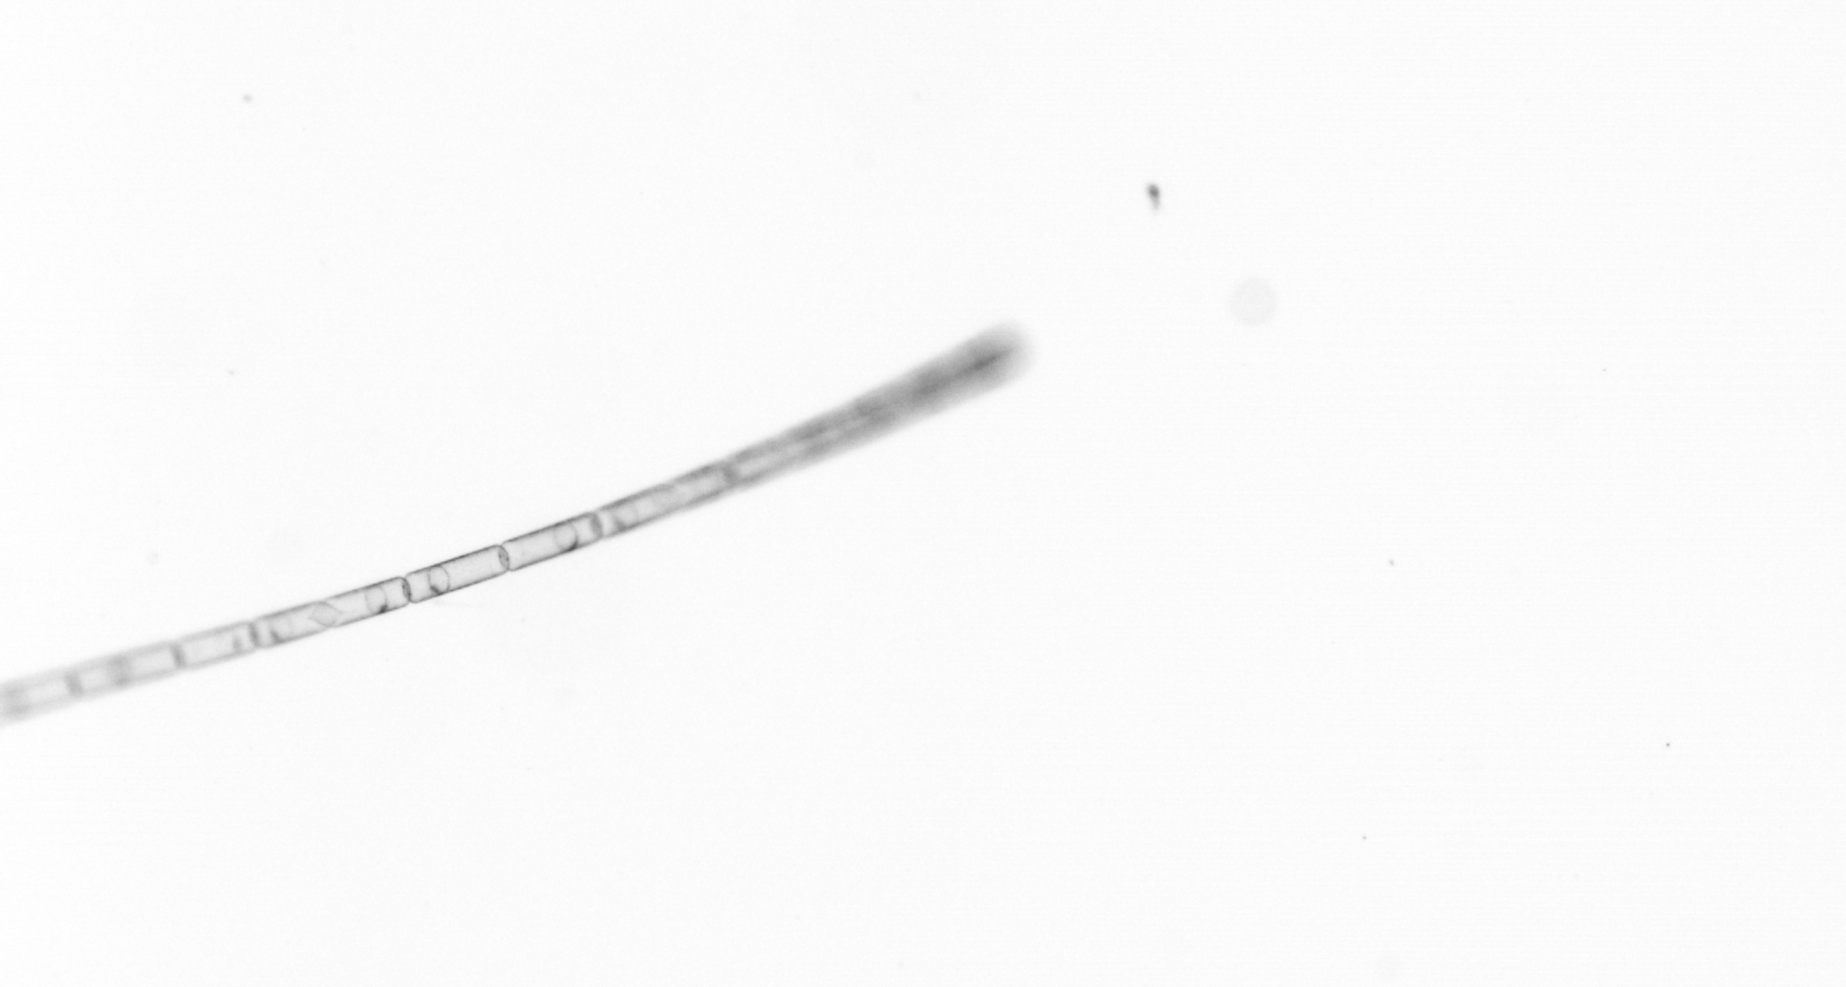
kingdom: Chromista
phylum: Ochrophyta
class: Bacillariophyceae
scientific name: Bacillariophyceae
